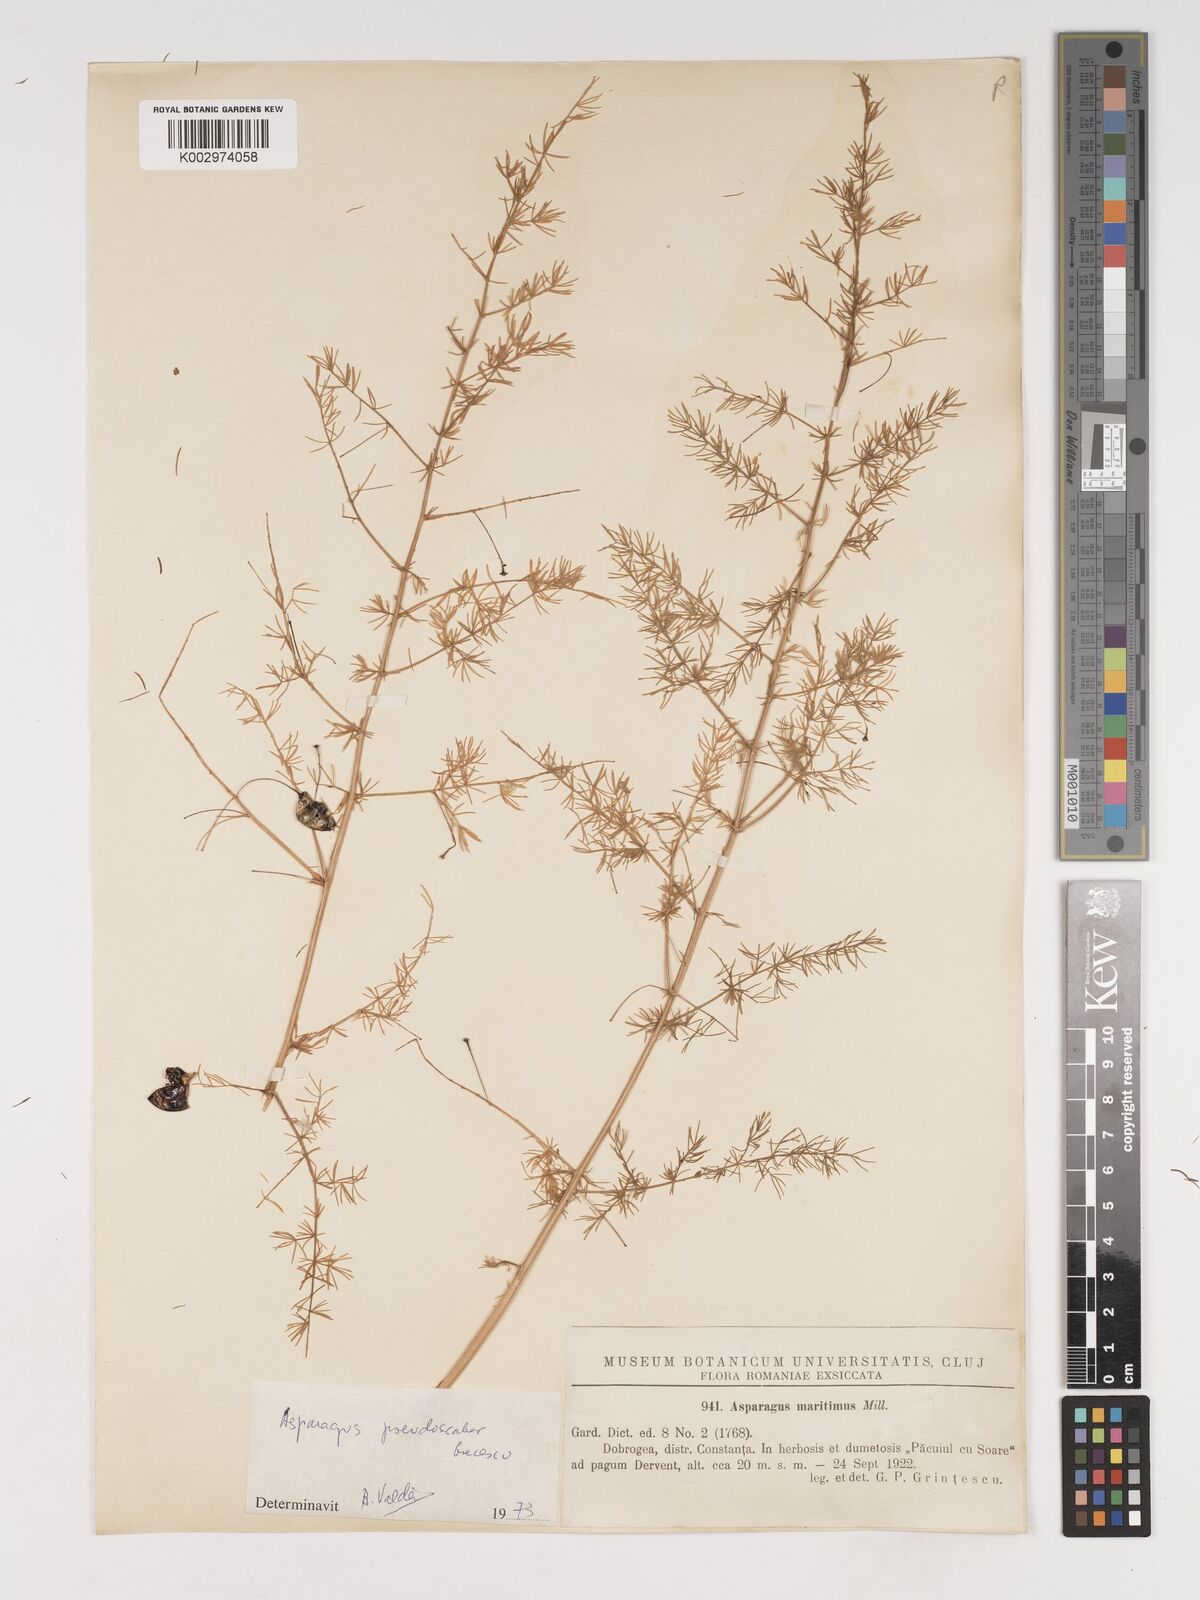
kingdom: Plantae
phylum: Tracheophyta
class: Liliopsida
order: Asparagales
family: Asparagaceae
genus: Asparagus
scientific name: Asparagus maritimus
